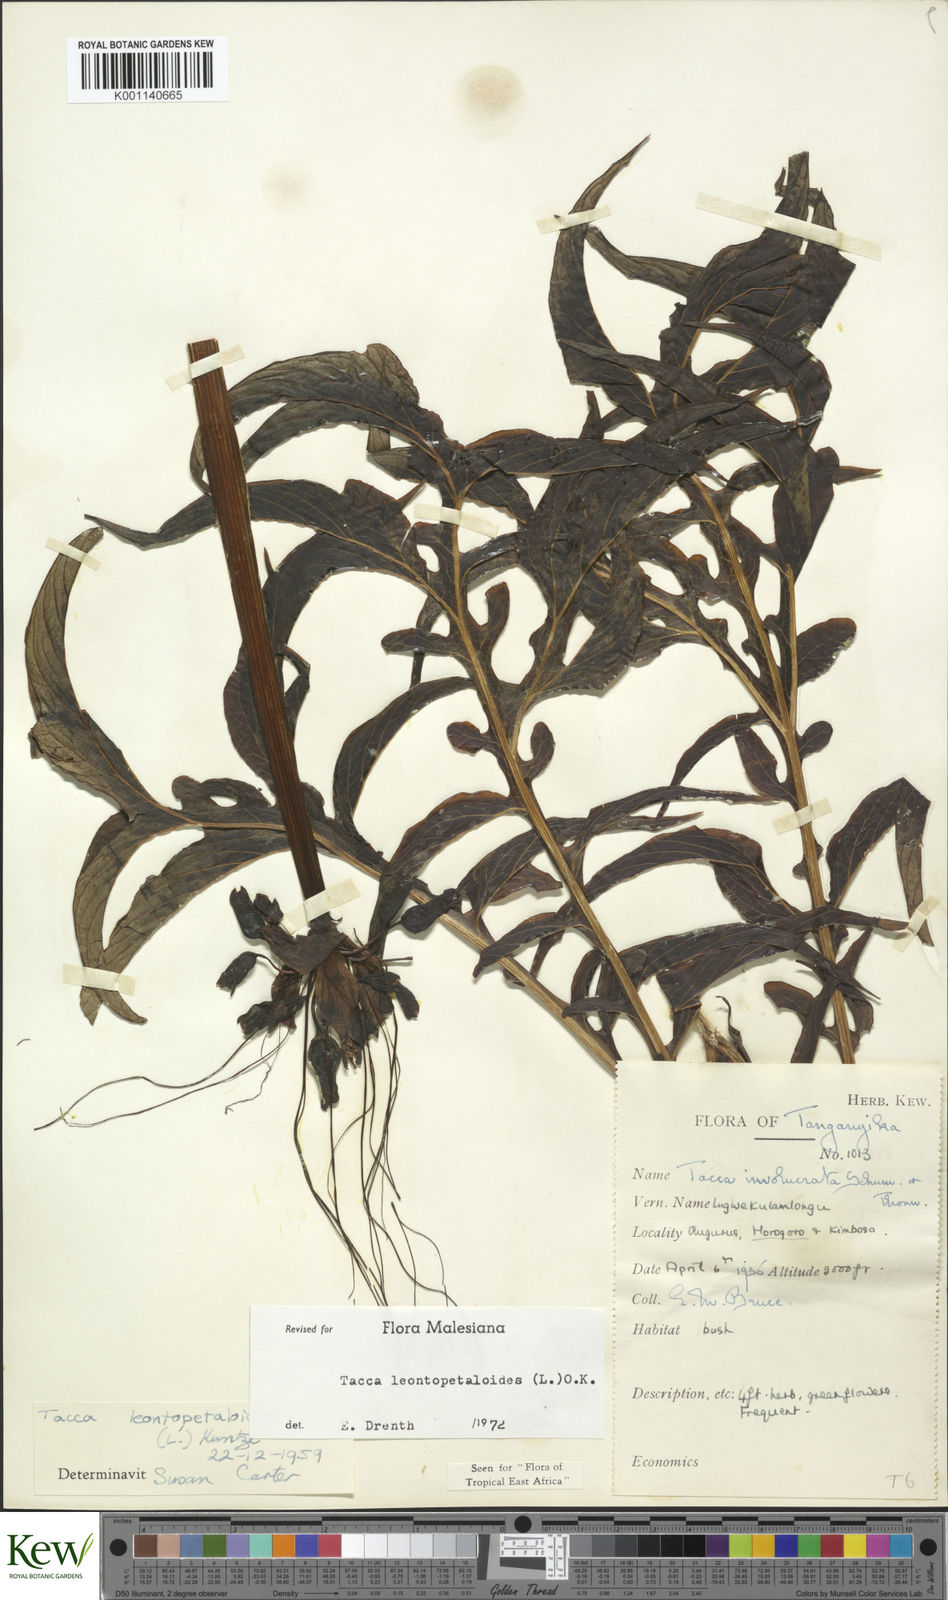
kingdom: Plantae
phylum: Tracheophyta
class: Liliopsida
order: Dioscoreales
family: Dioscoreaceae
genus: Tacca
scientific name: Tacca leontopetaloides
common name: Arrowroot
